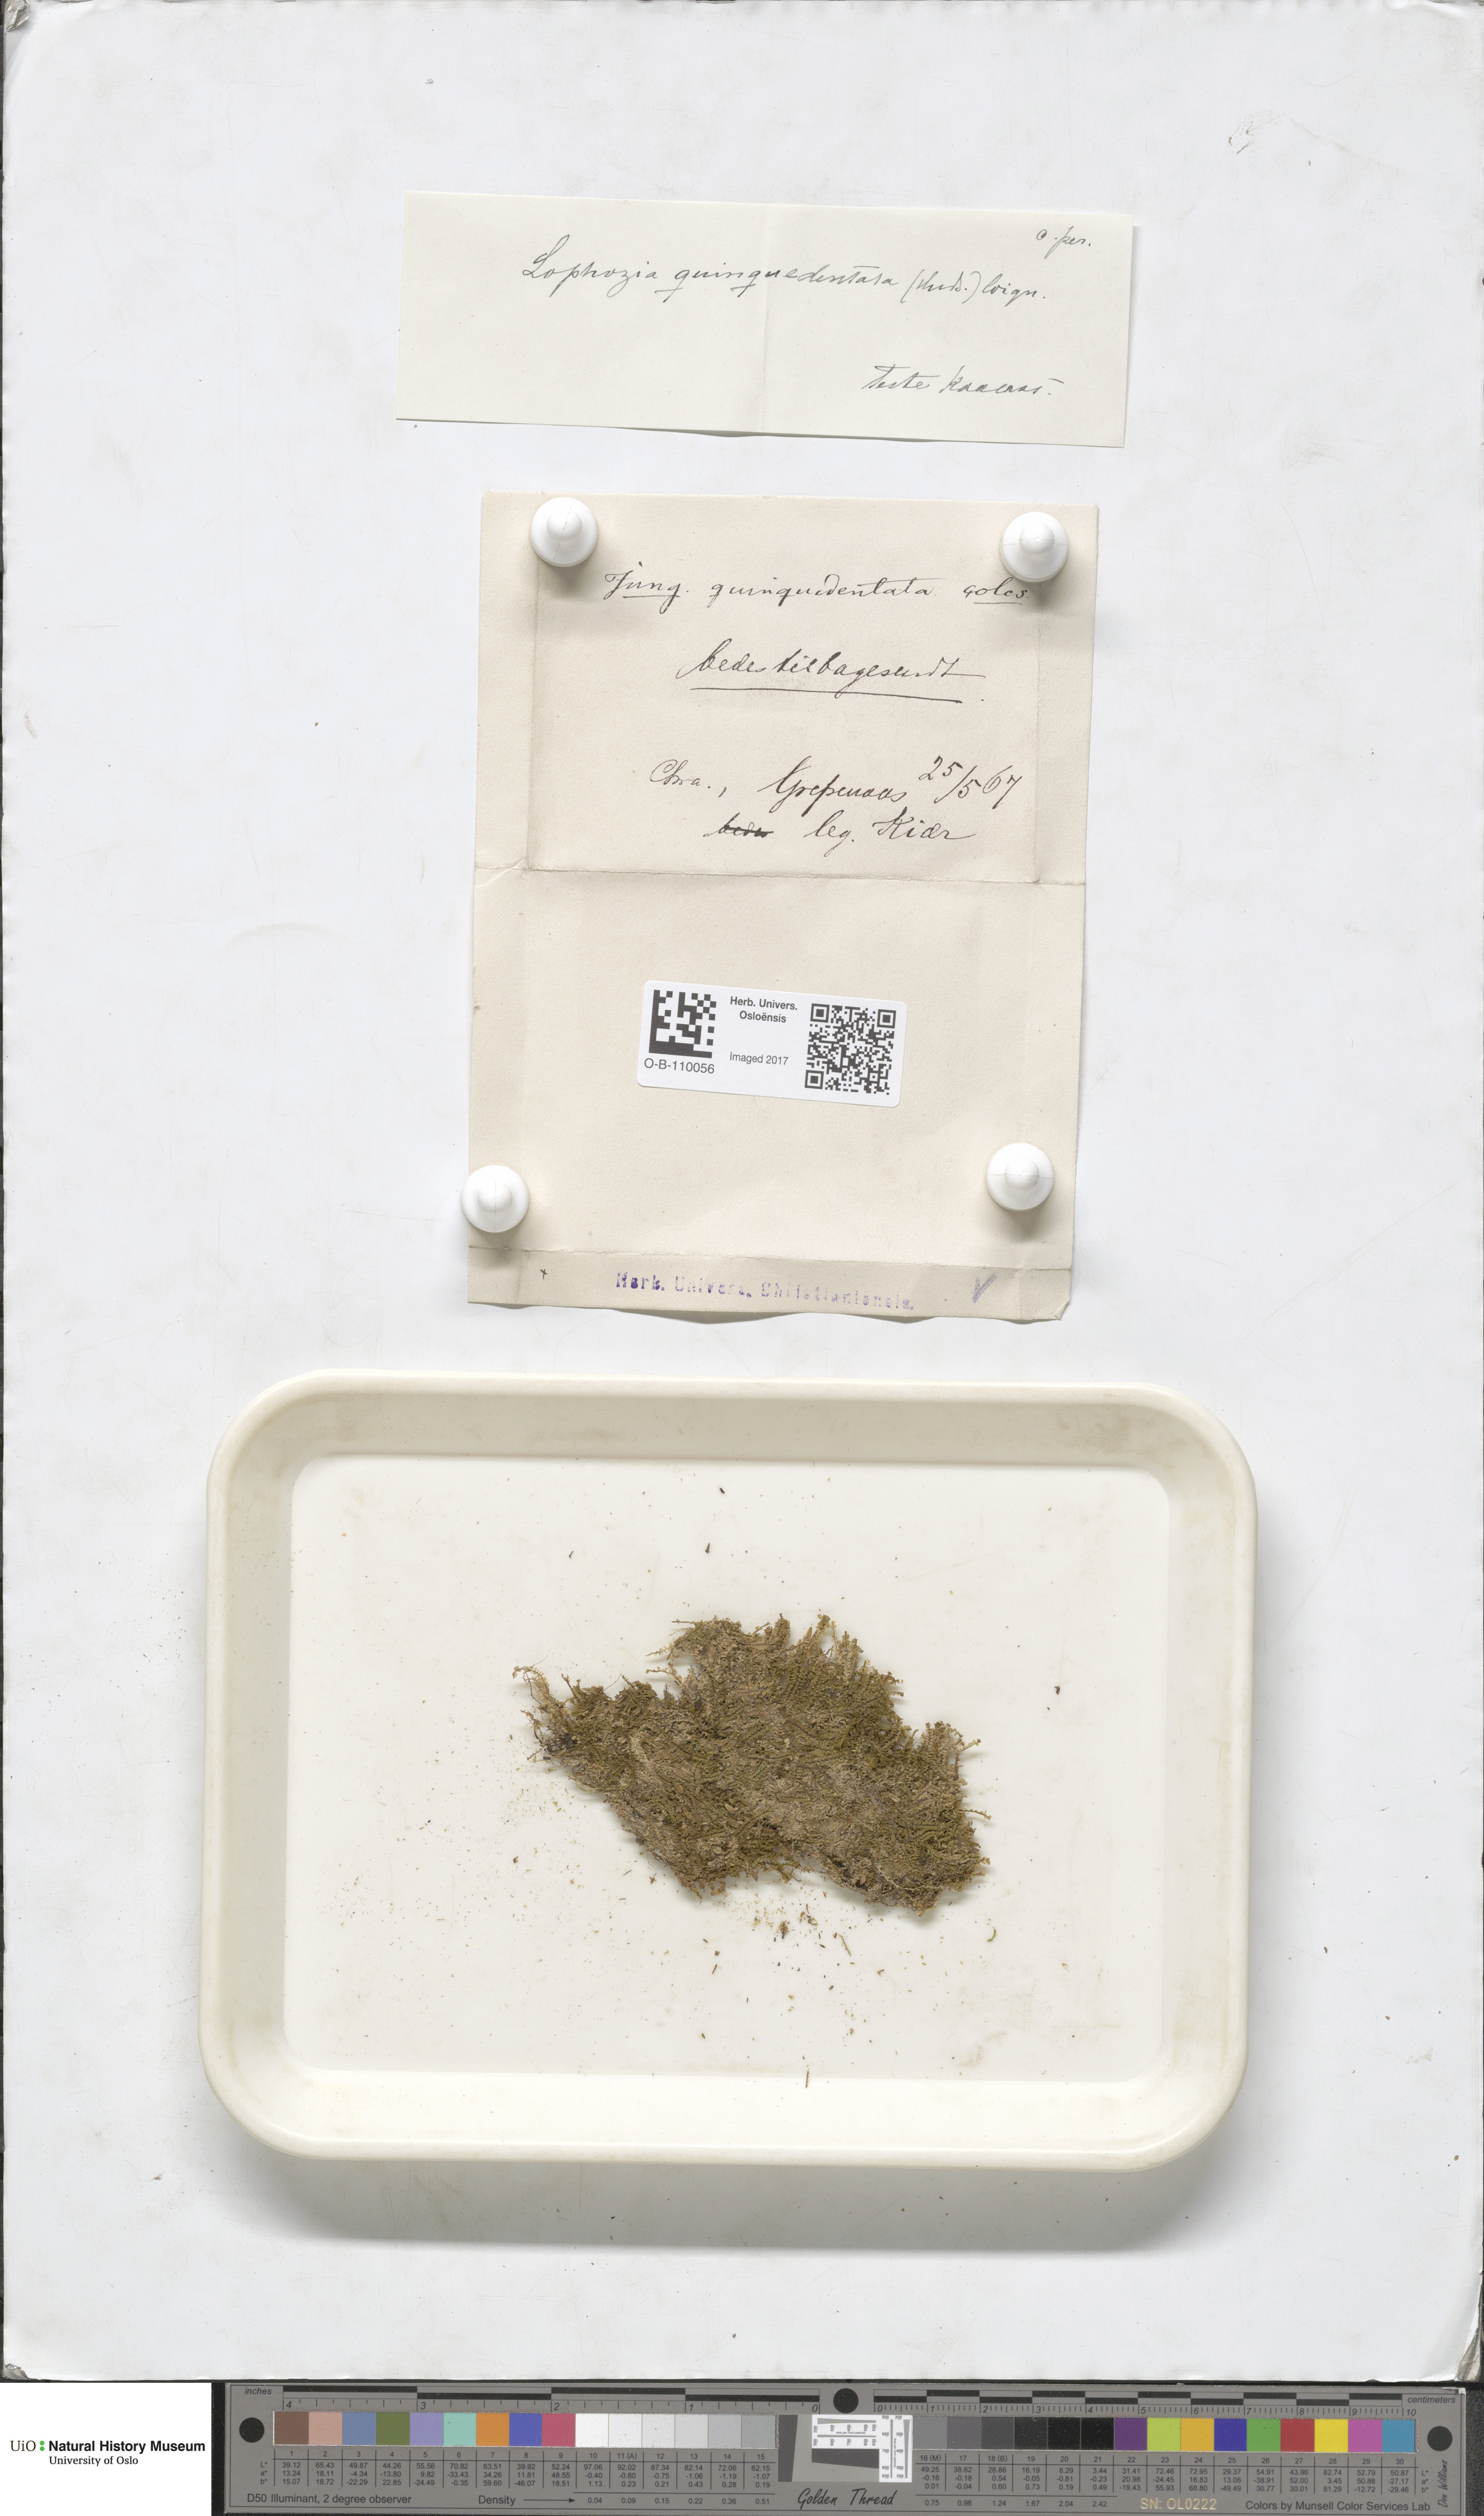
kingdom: Plantae
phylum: Marchantiophyta
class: Jungermanniopsida
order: Jungermanniales
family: Lophoziaceae
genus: Trilophozia
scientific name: Trilophozia quinquedentata
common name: Large notchwort
